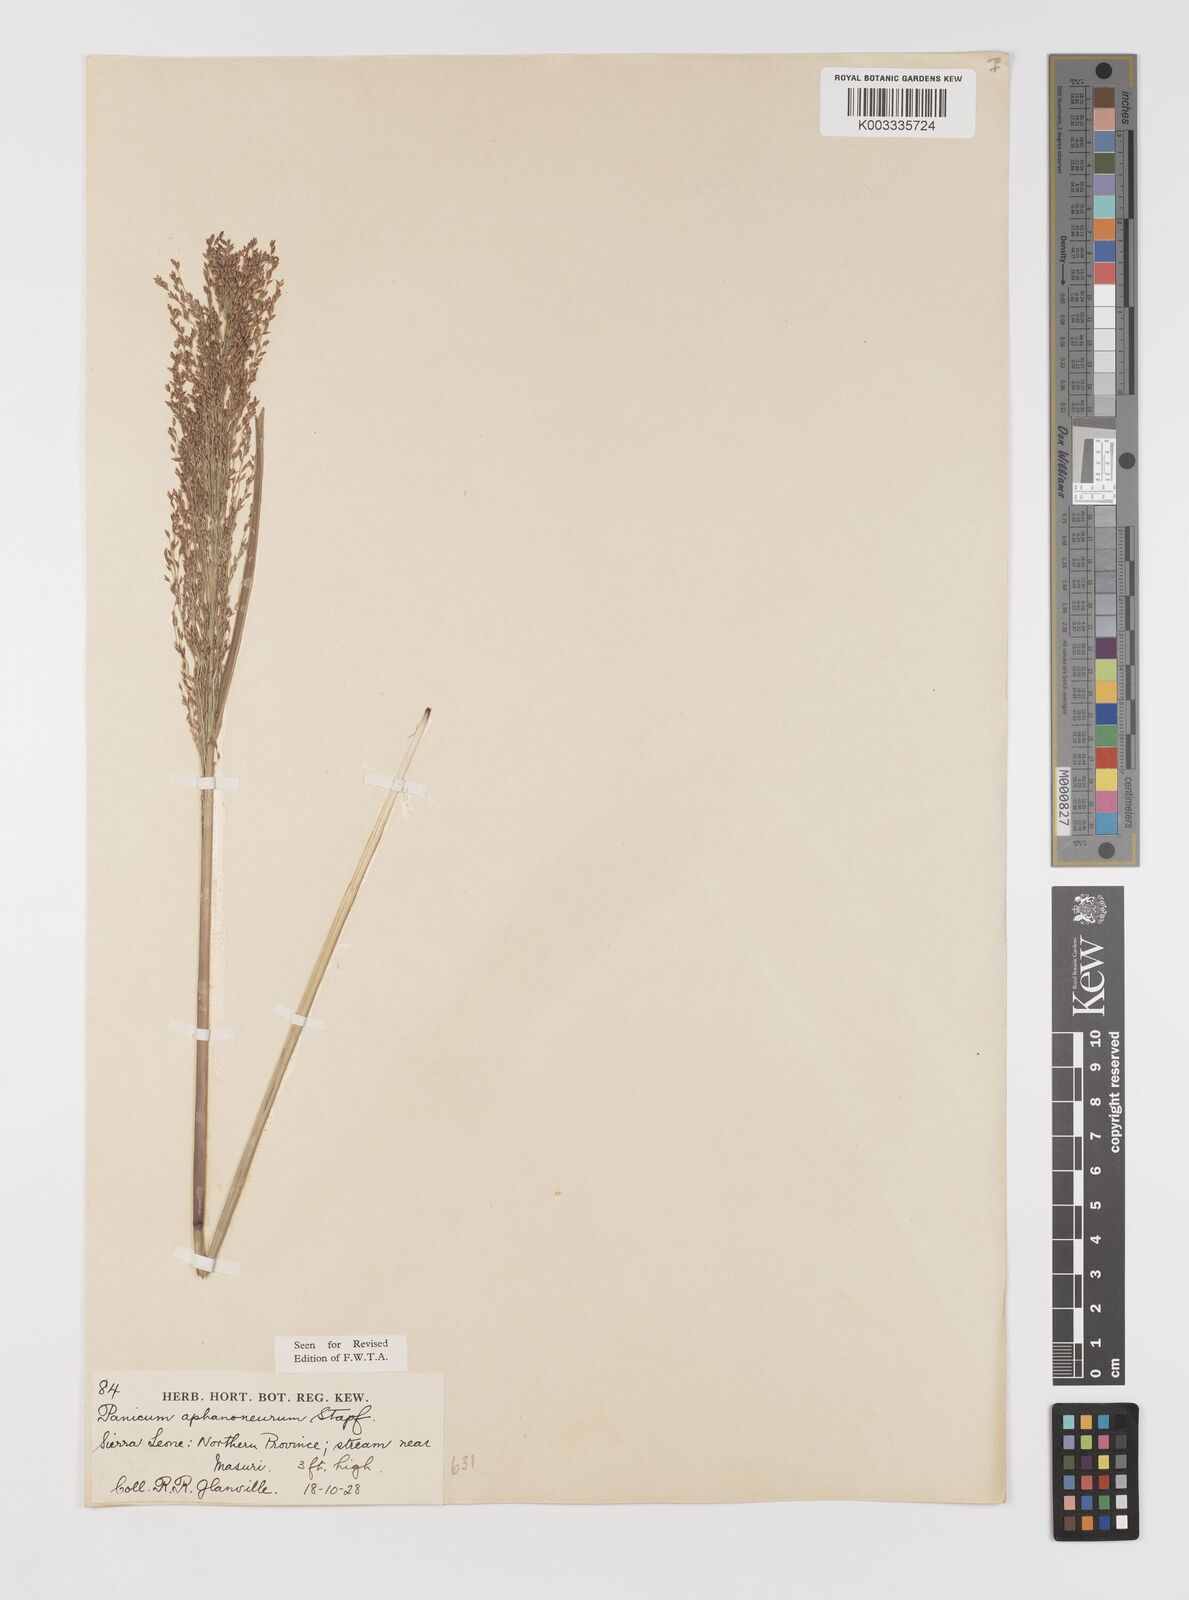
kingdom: Plantae
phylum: Tracheophyta
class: Liliopsida
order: Poales
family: Poaceae
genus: Panicum
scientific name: Panicum fluviicola
